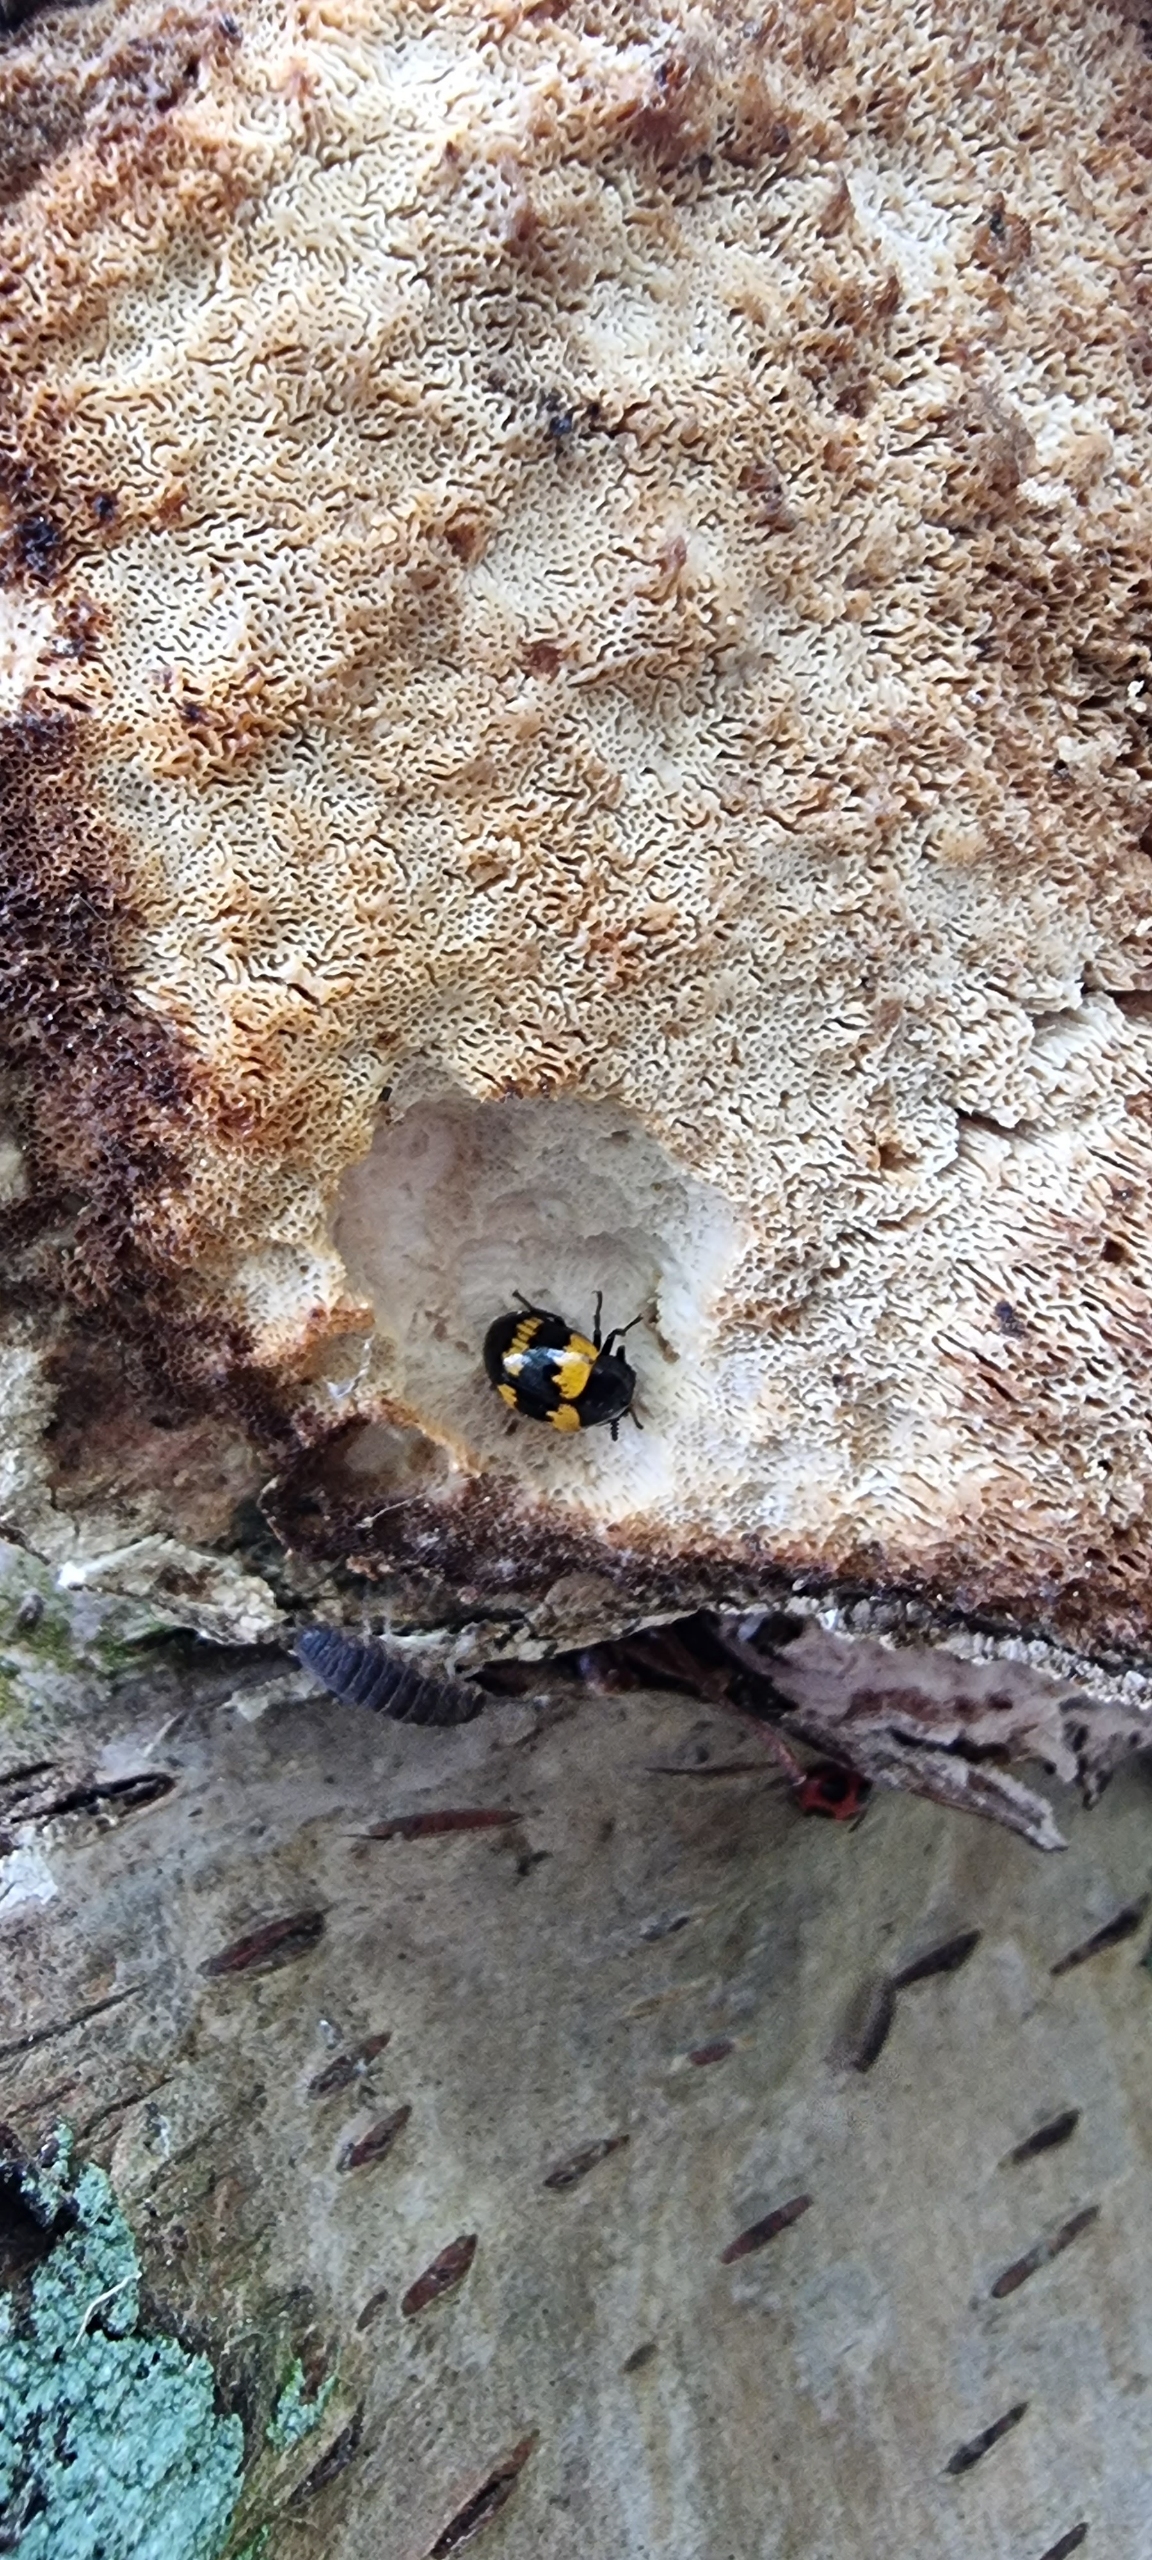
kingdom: Animalia
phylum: Arthropoda
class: Insecta
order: Coleoptera
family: Tenebrionidae
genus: Diaperis
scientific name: Diaperis boleti
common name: Tigerskyggebille
